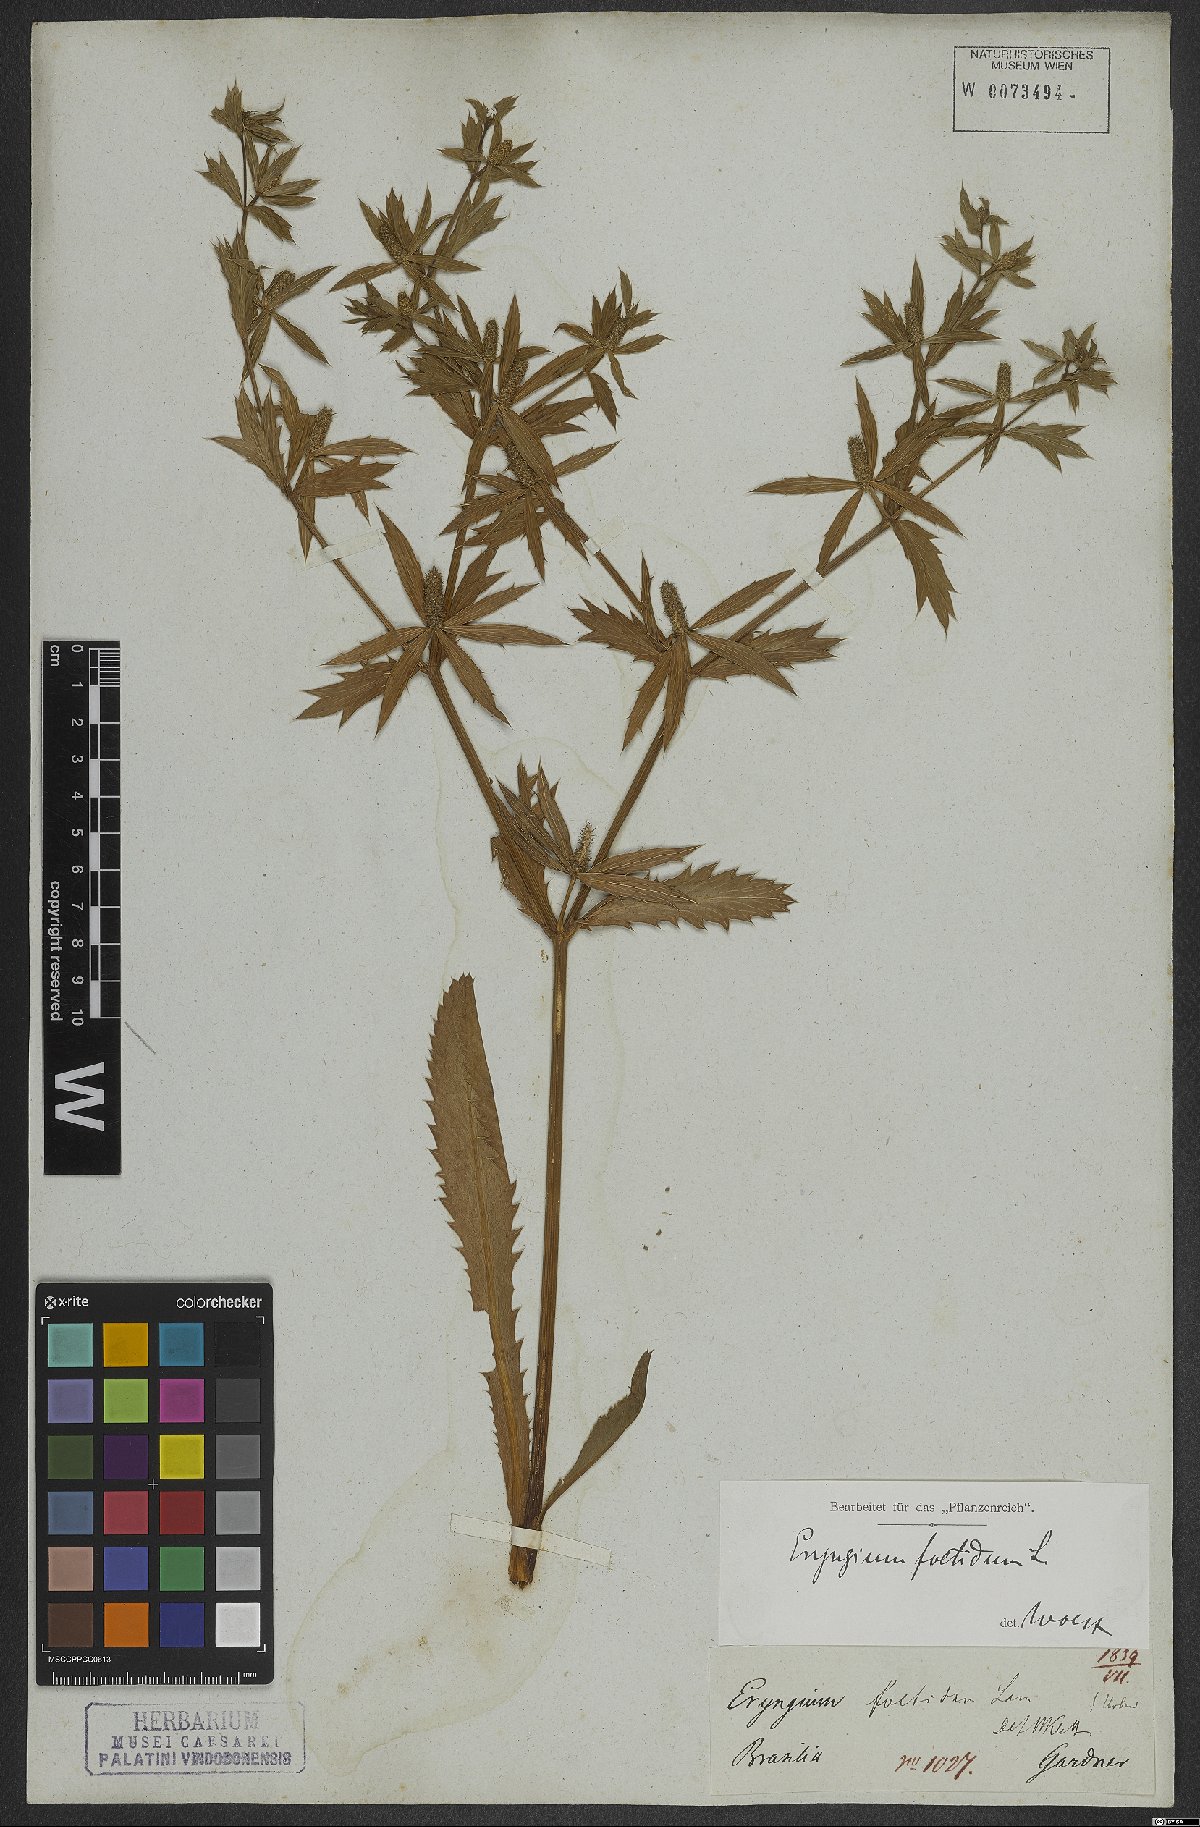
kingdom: Plantae
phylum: Tracheophyta
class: Magnoliopsida
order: Apiales
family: Apiaceae
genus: Eryngium
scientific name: Eryngium foetidum
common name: Fitweed
